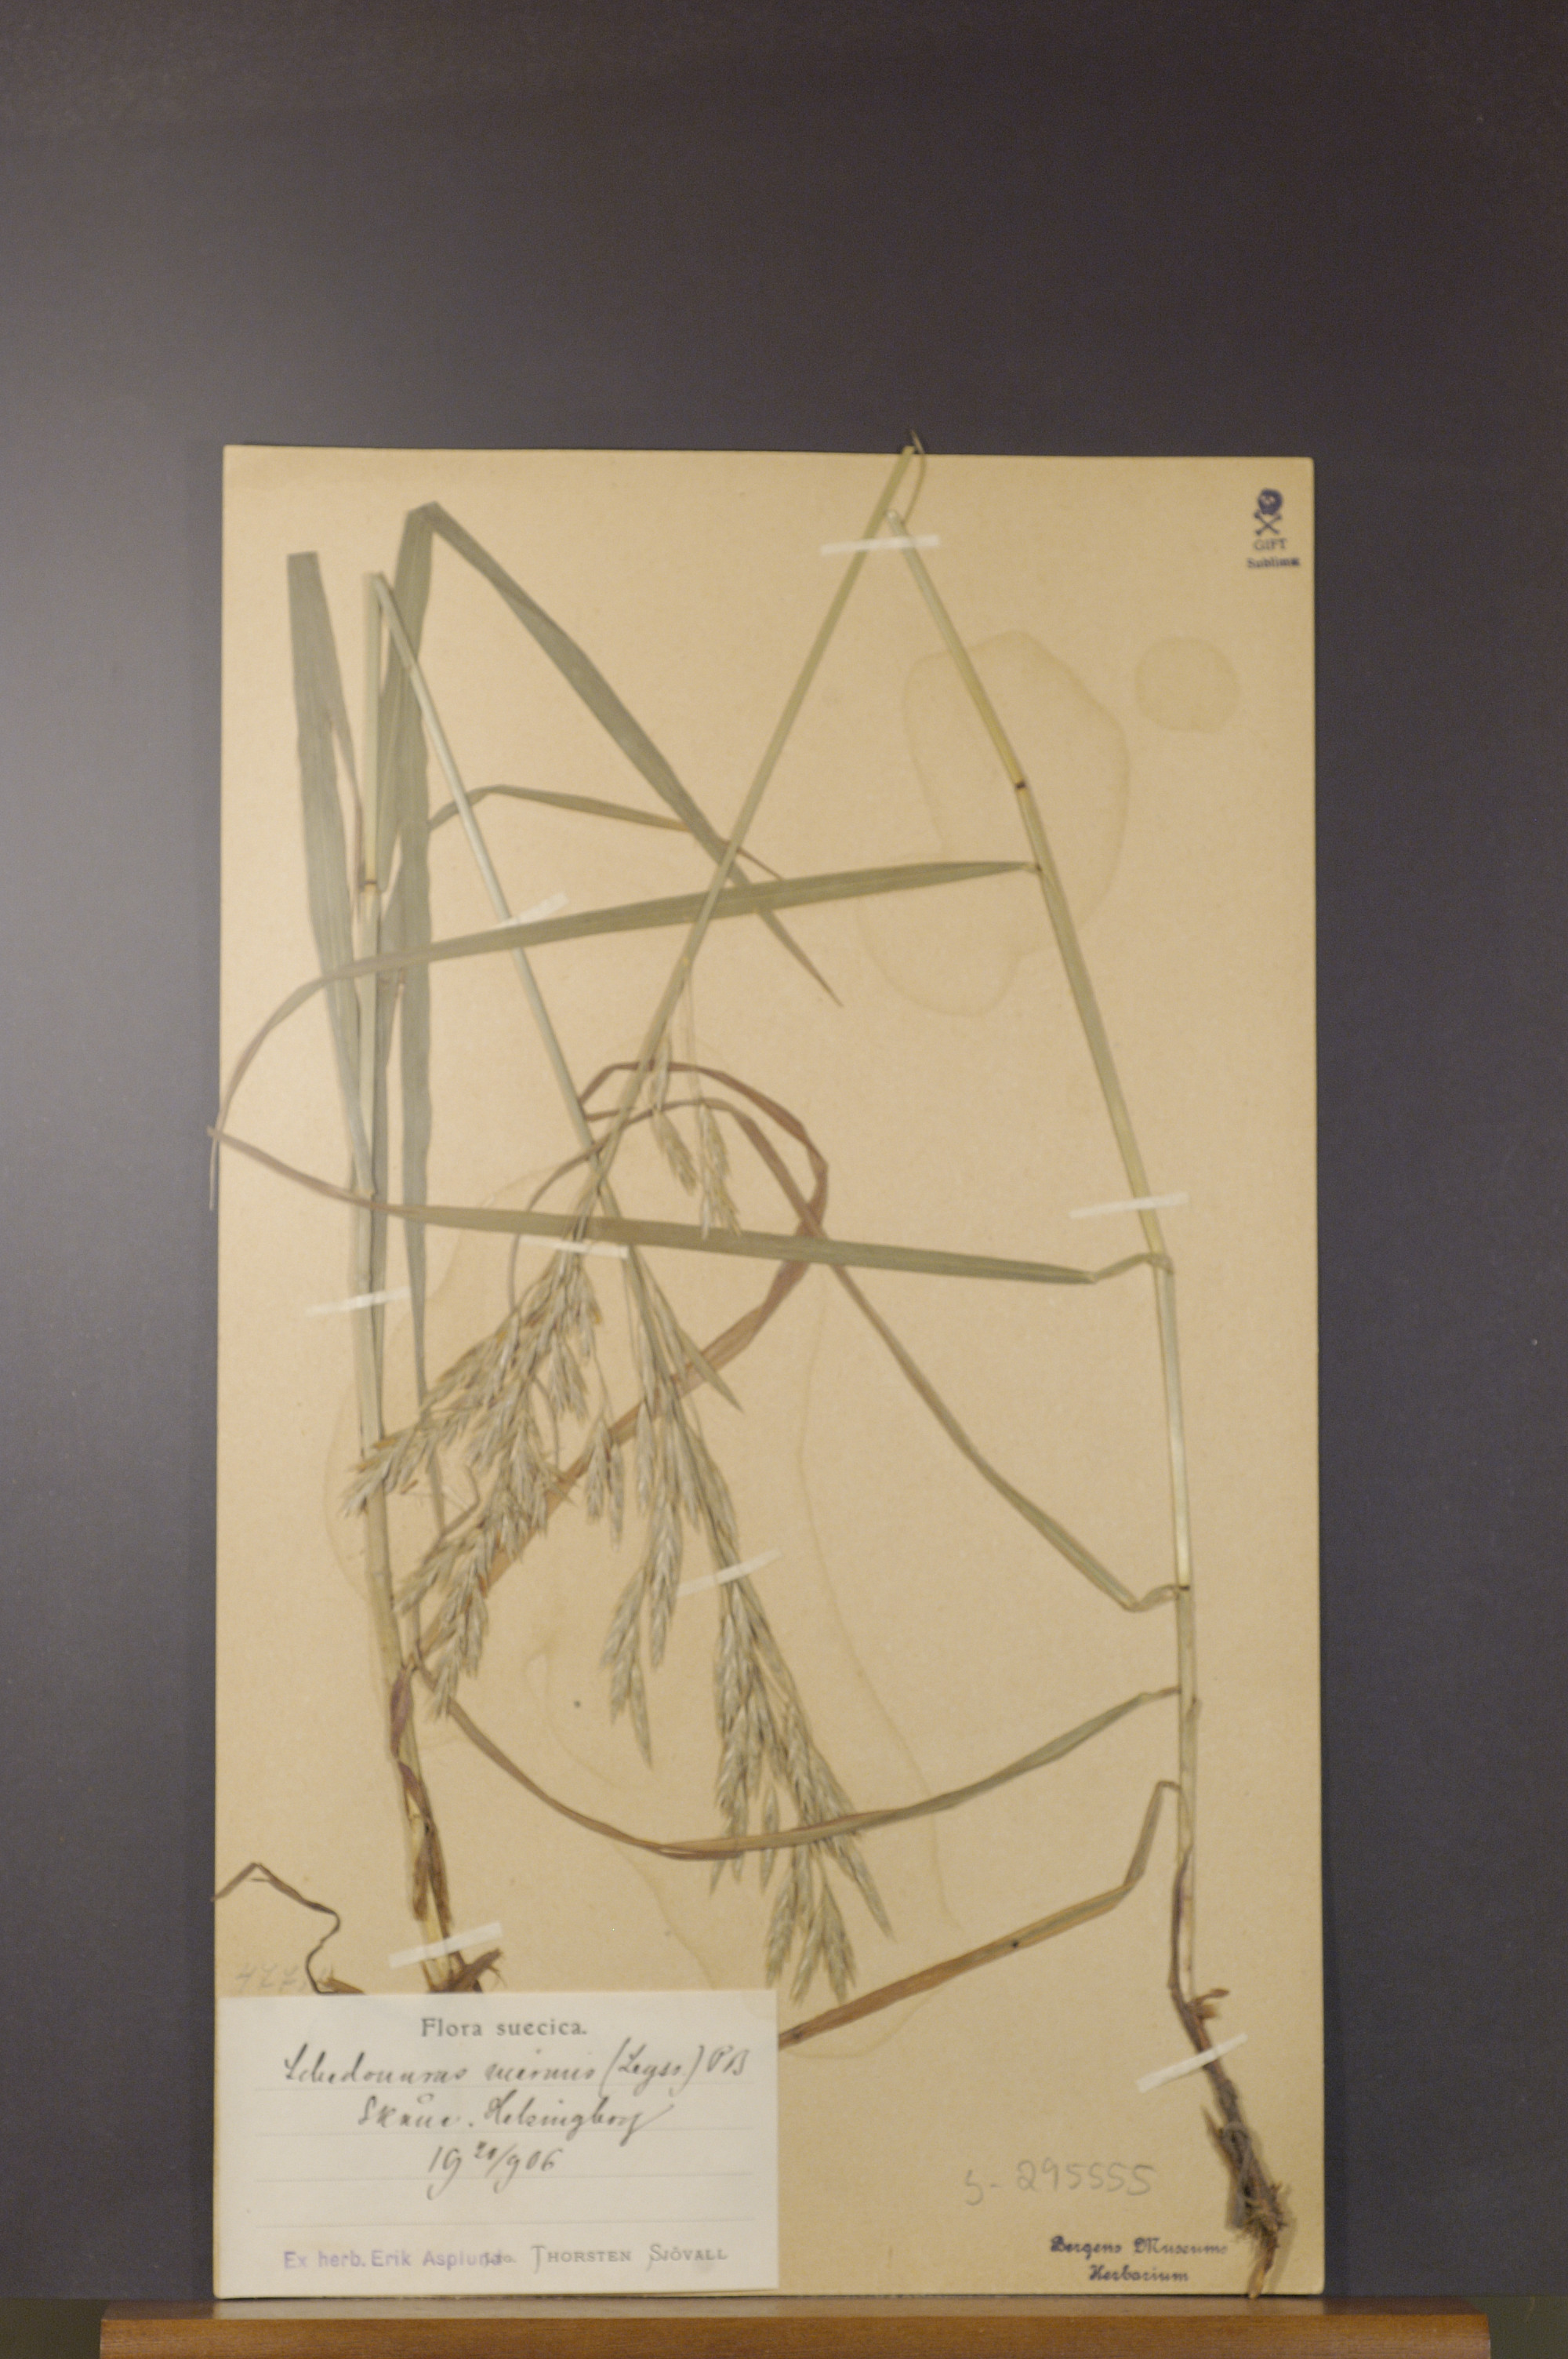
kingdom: Plantae
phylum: Tracheophyta
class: Liliopsida
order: Poales
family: Poaceae
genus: Bromus
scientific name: Bromus inermis
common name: Smooth brome
